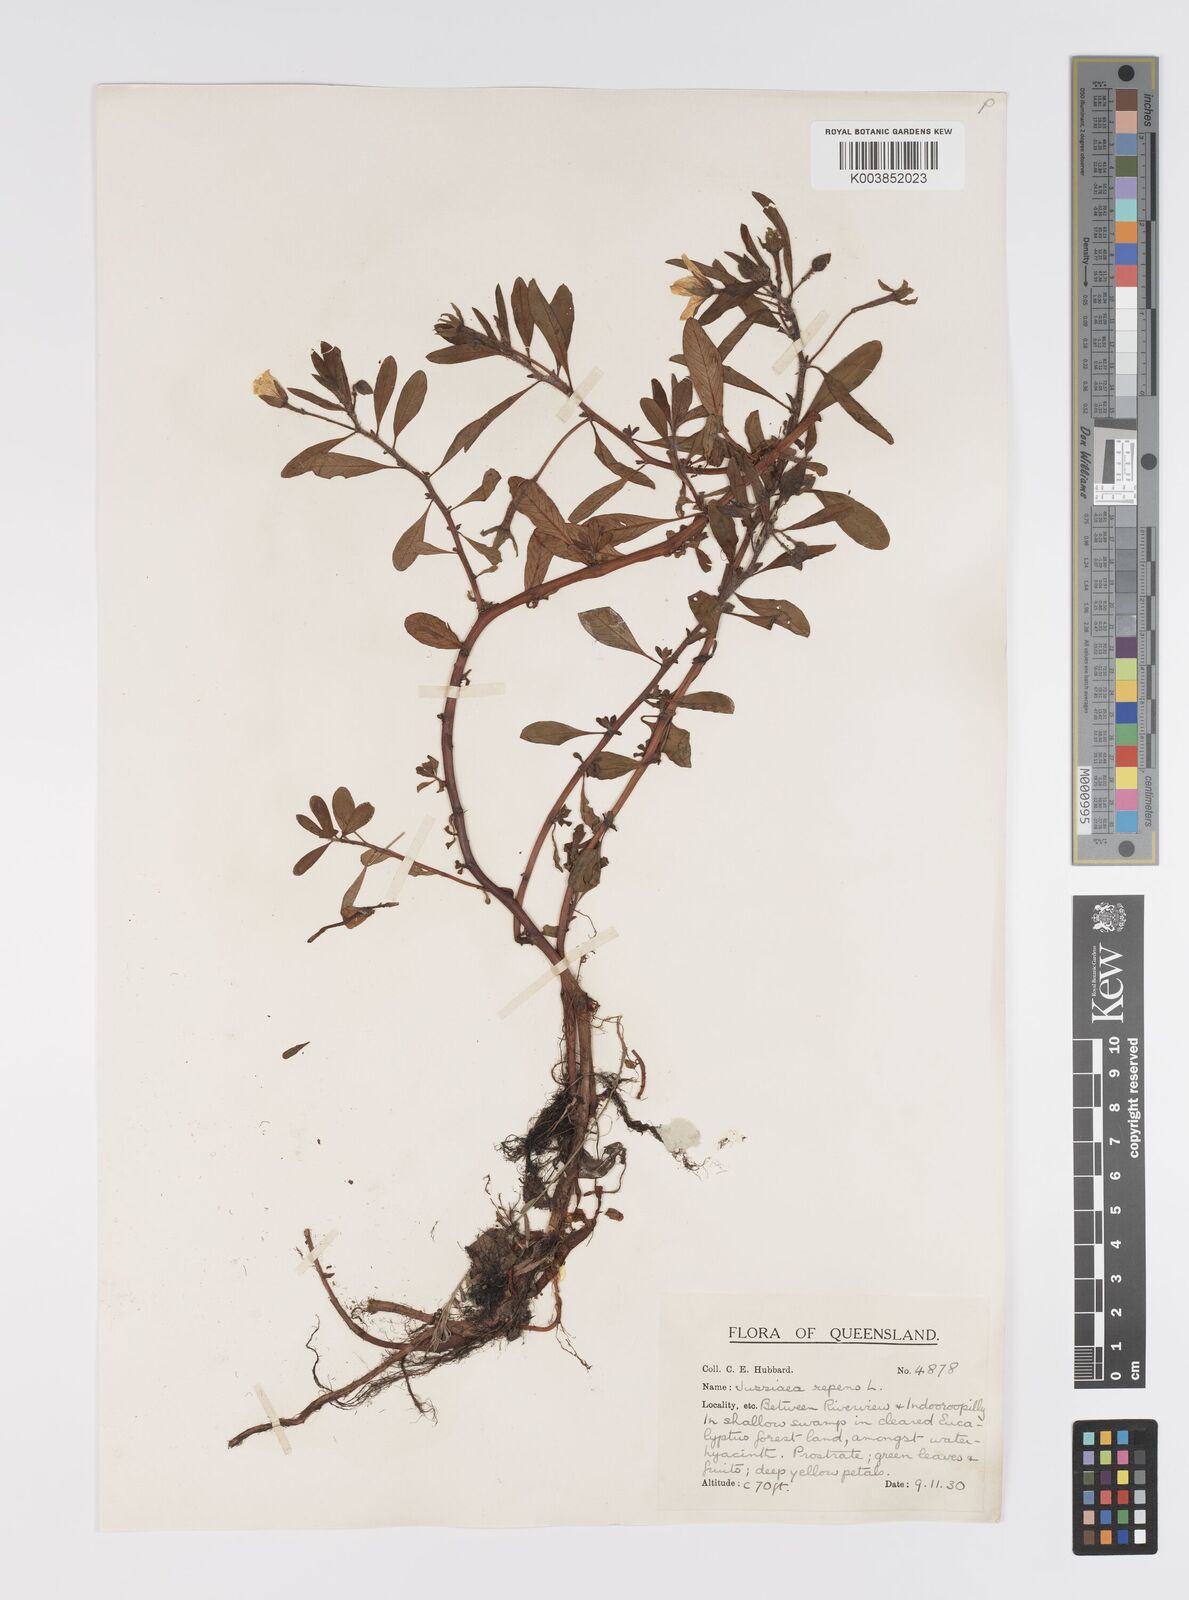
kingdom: Plantae
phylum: Tracheophyta
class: Magnoliopsida
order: Myrtales
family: Onagraceae
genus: Ludwigia
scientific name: Ludwigia peploides
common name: Floating primrose-willow
